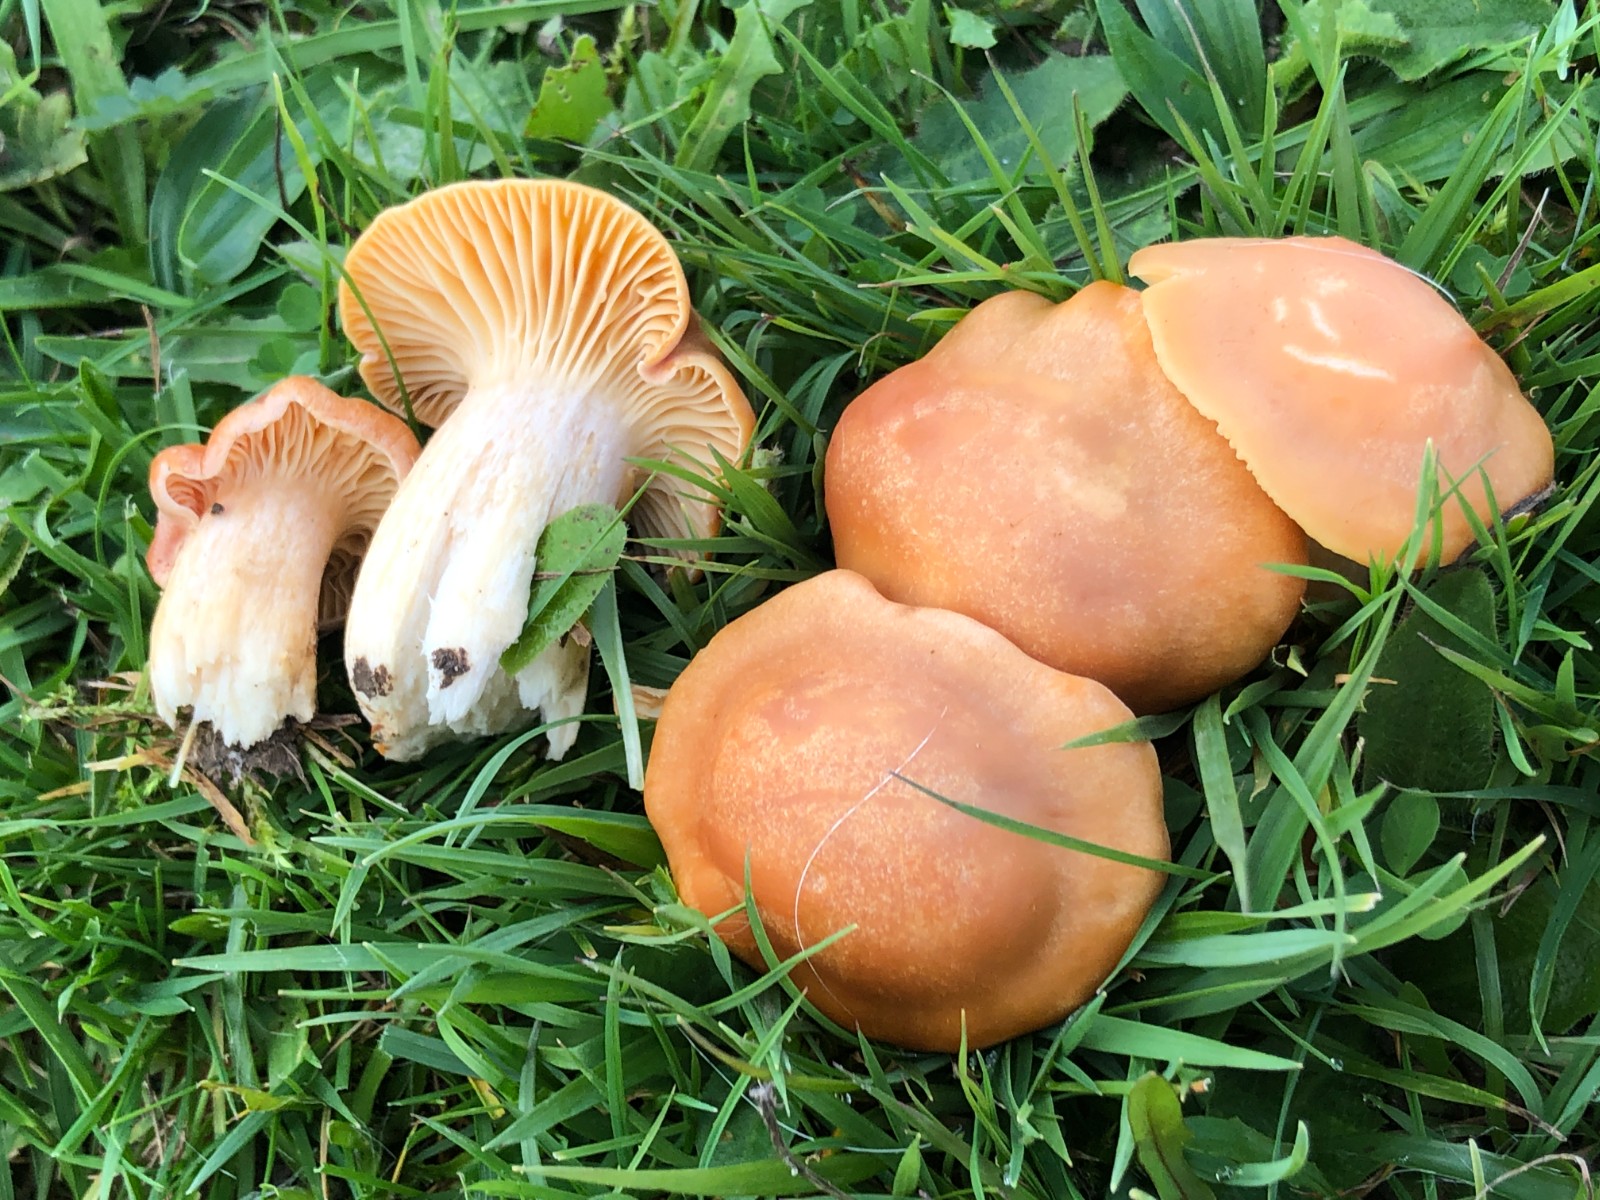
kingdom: Fungi
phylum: Basidiomycota
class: Agaricomycetes
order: Agaricales
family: Hygrophoraceae
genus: Cuphophyllus
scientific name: Cuphophyllus pratensis
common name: eng-vokshat
